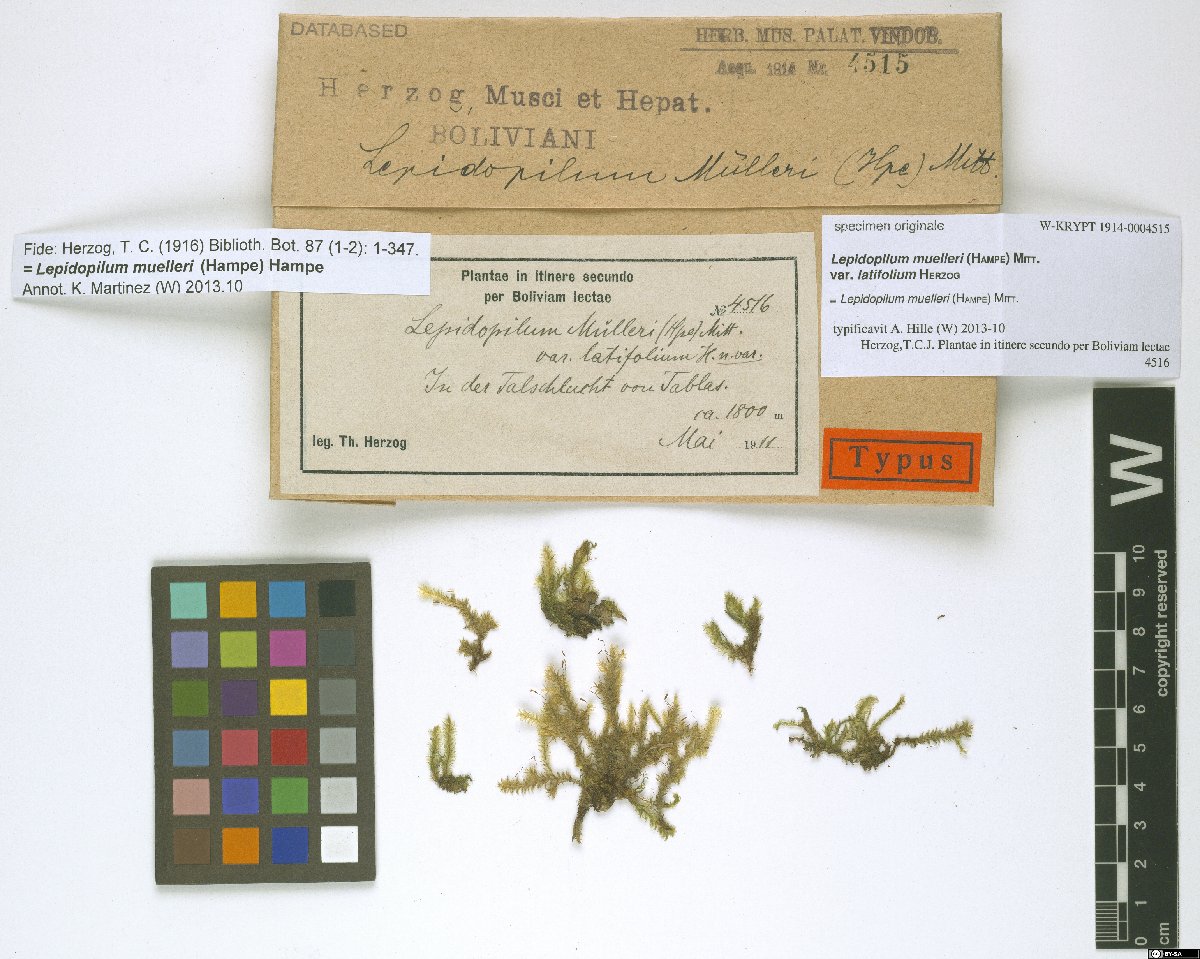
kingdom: Plantae
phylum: Bryophyta
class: Bryopsida
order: Hookeriales
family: Pilotrichaceae
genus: Lepidopilum
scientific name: Lepidopilum muelleri
